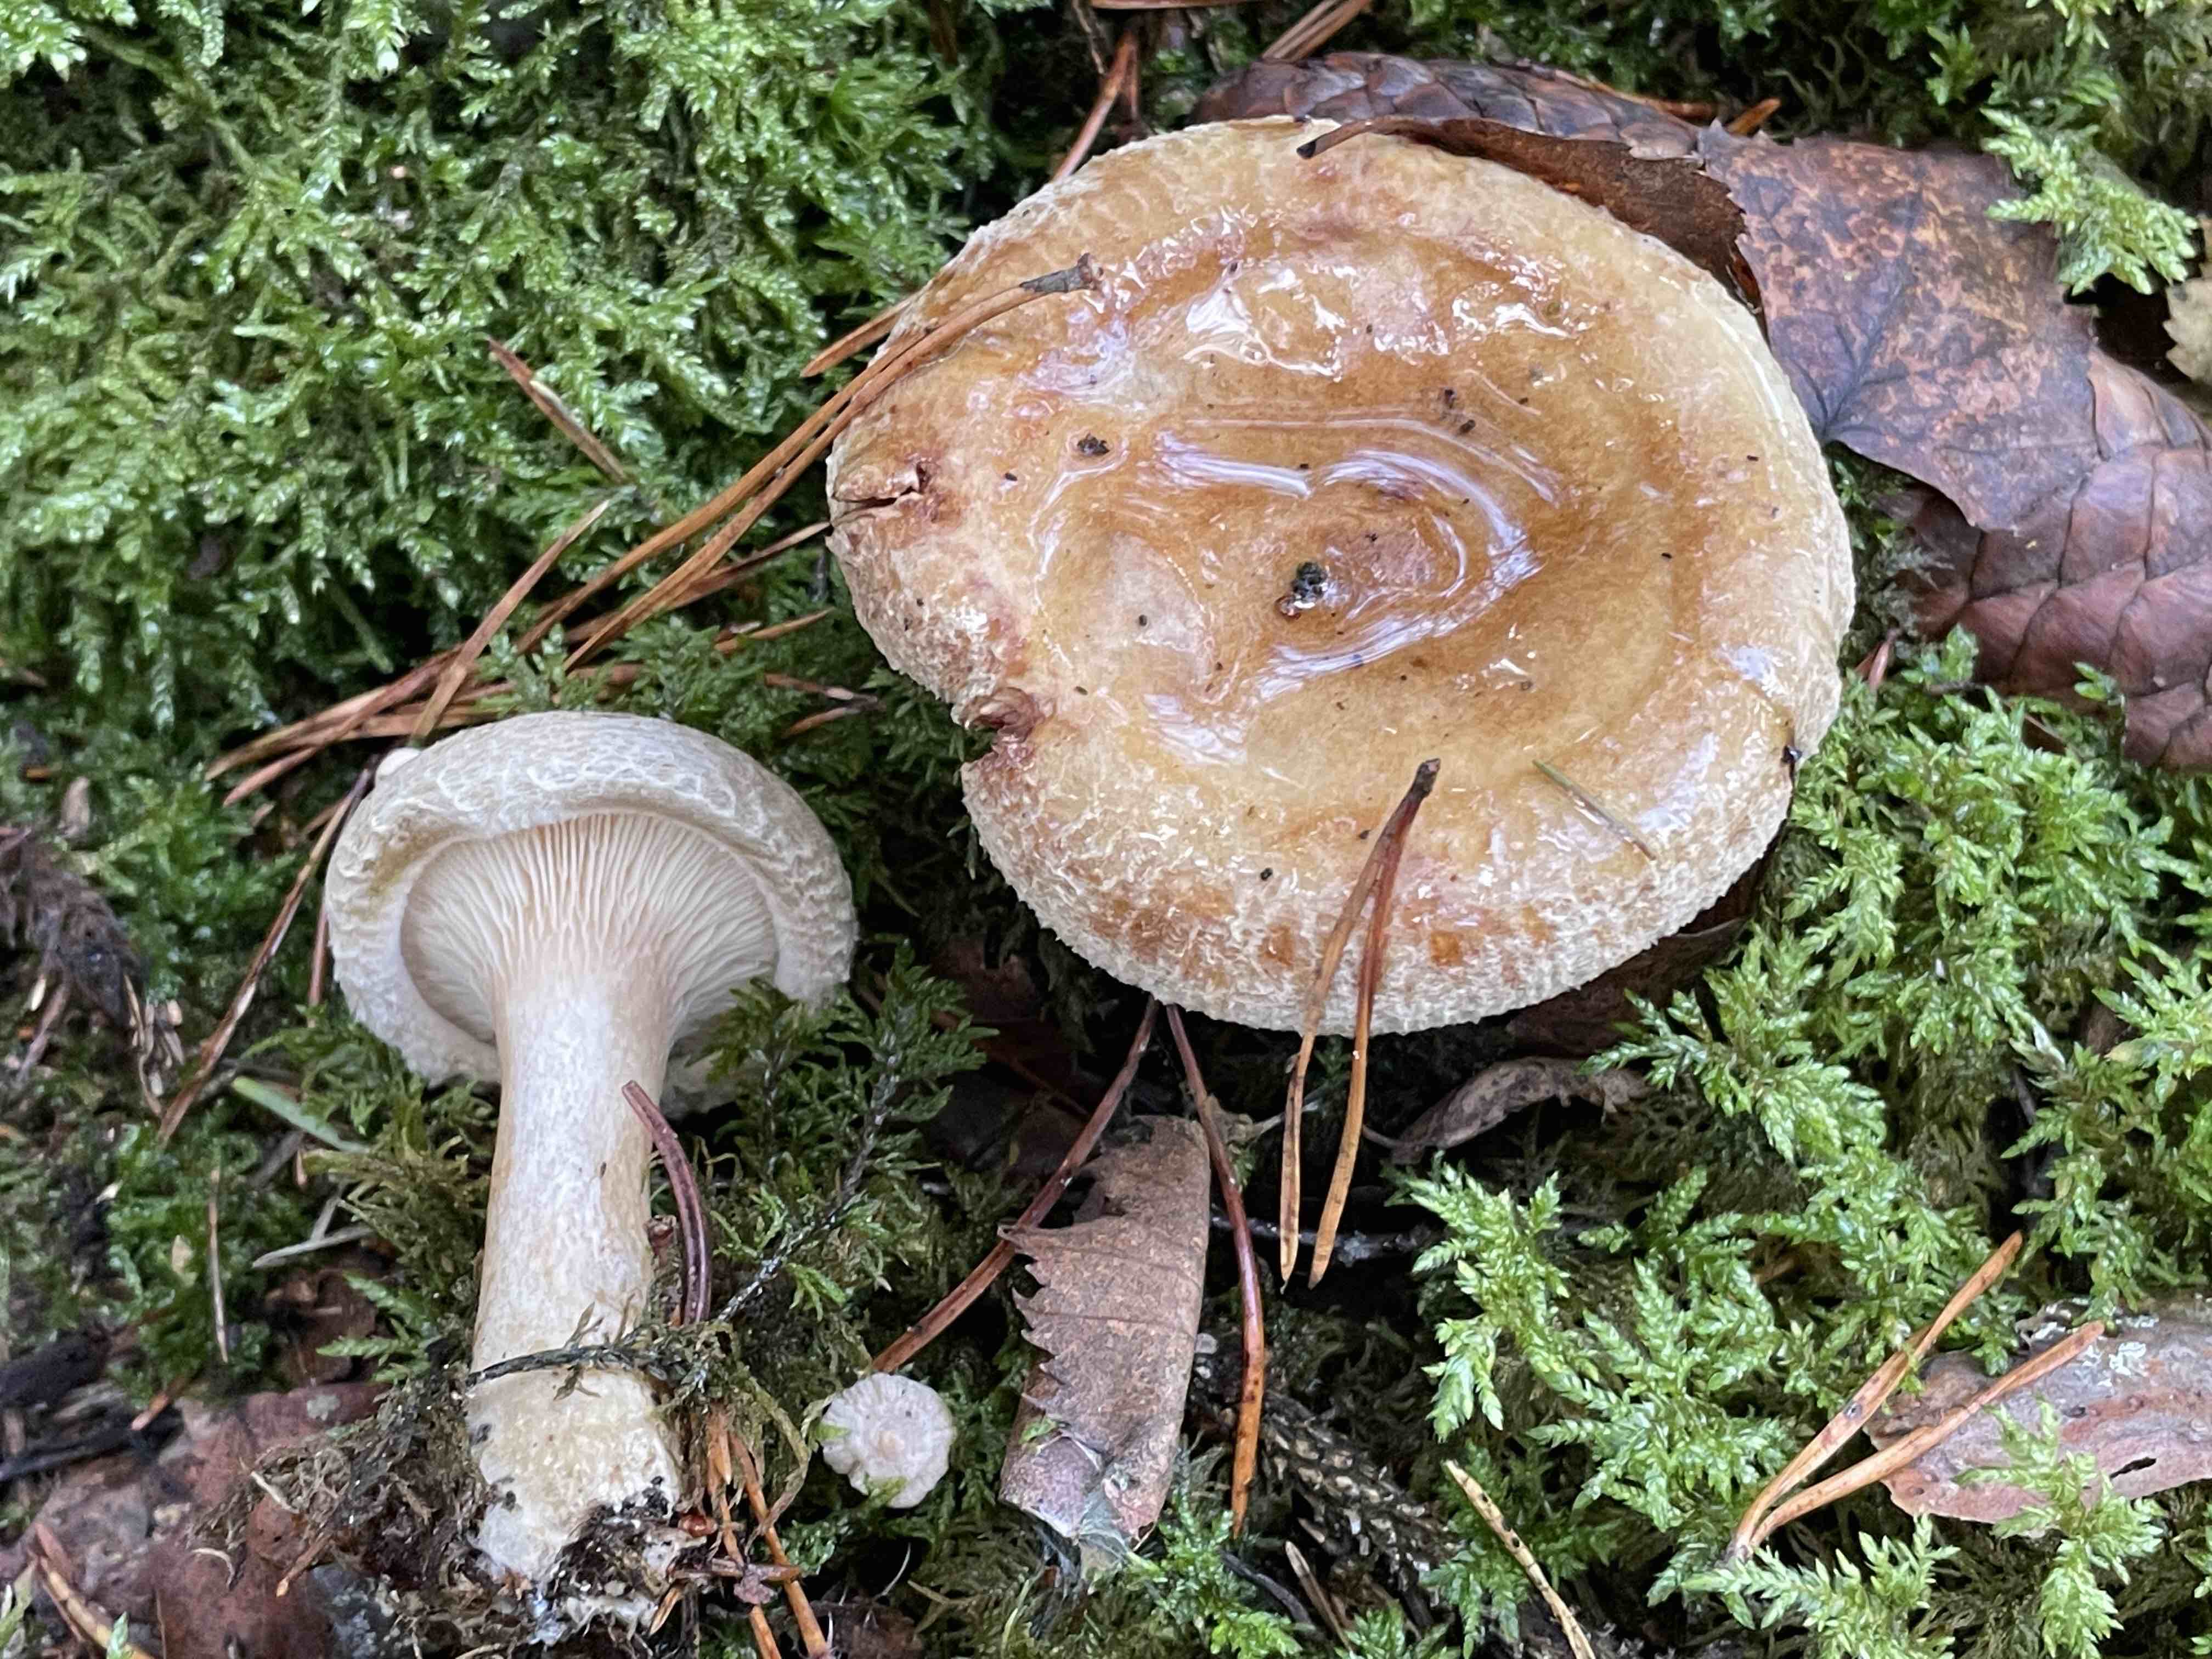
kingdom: Fungi
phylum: Basidiomycota
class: Agaricomycetes
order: Boletales
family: Paxillaceae
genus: Paxillus
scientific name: Paxillus involutus
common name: almindelig netbladhat
